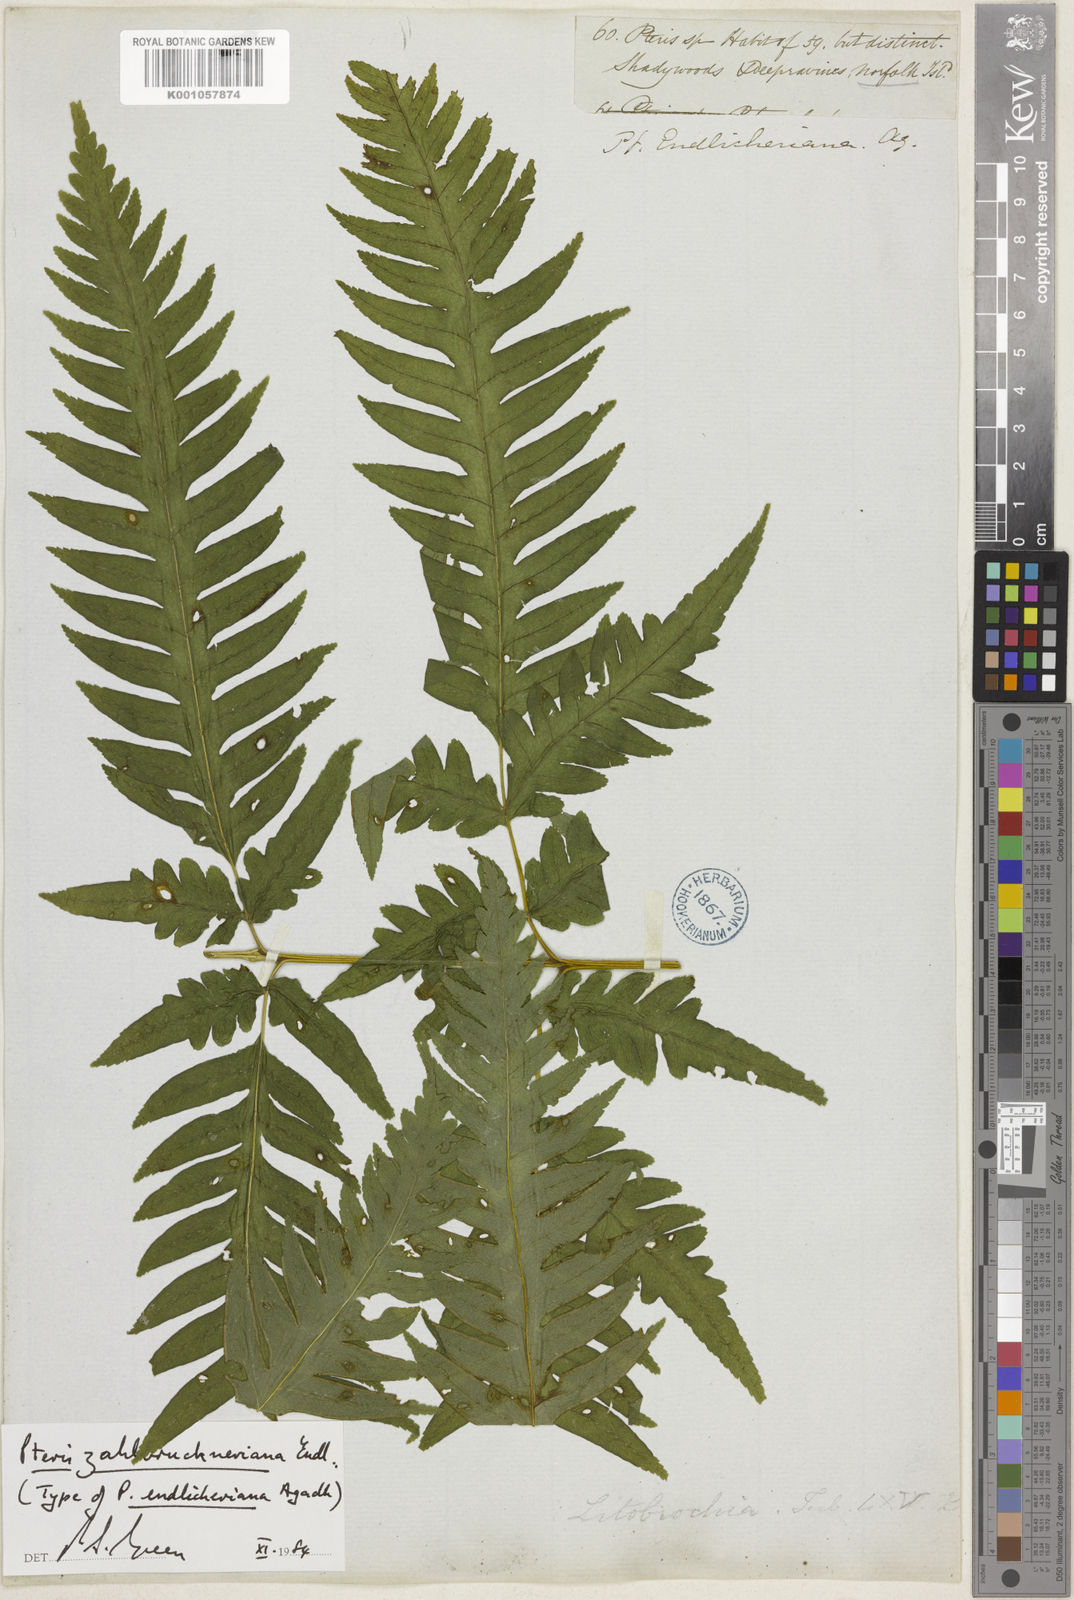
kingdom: Plantae
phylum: Tracheophyta
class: Polypodiopsida
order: Polypodiales
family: Pteridaceae
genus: Pteris
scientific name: Pteris zahlbruckneriana
